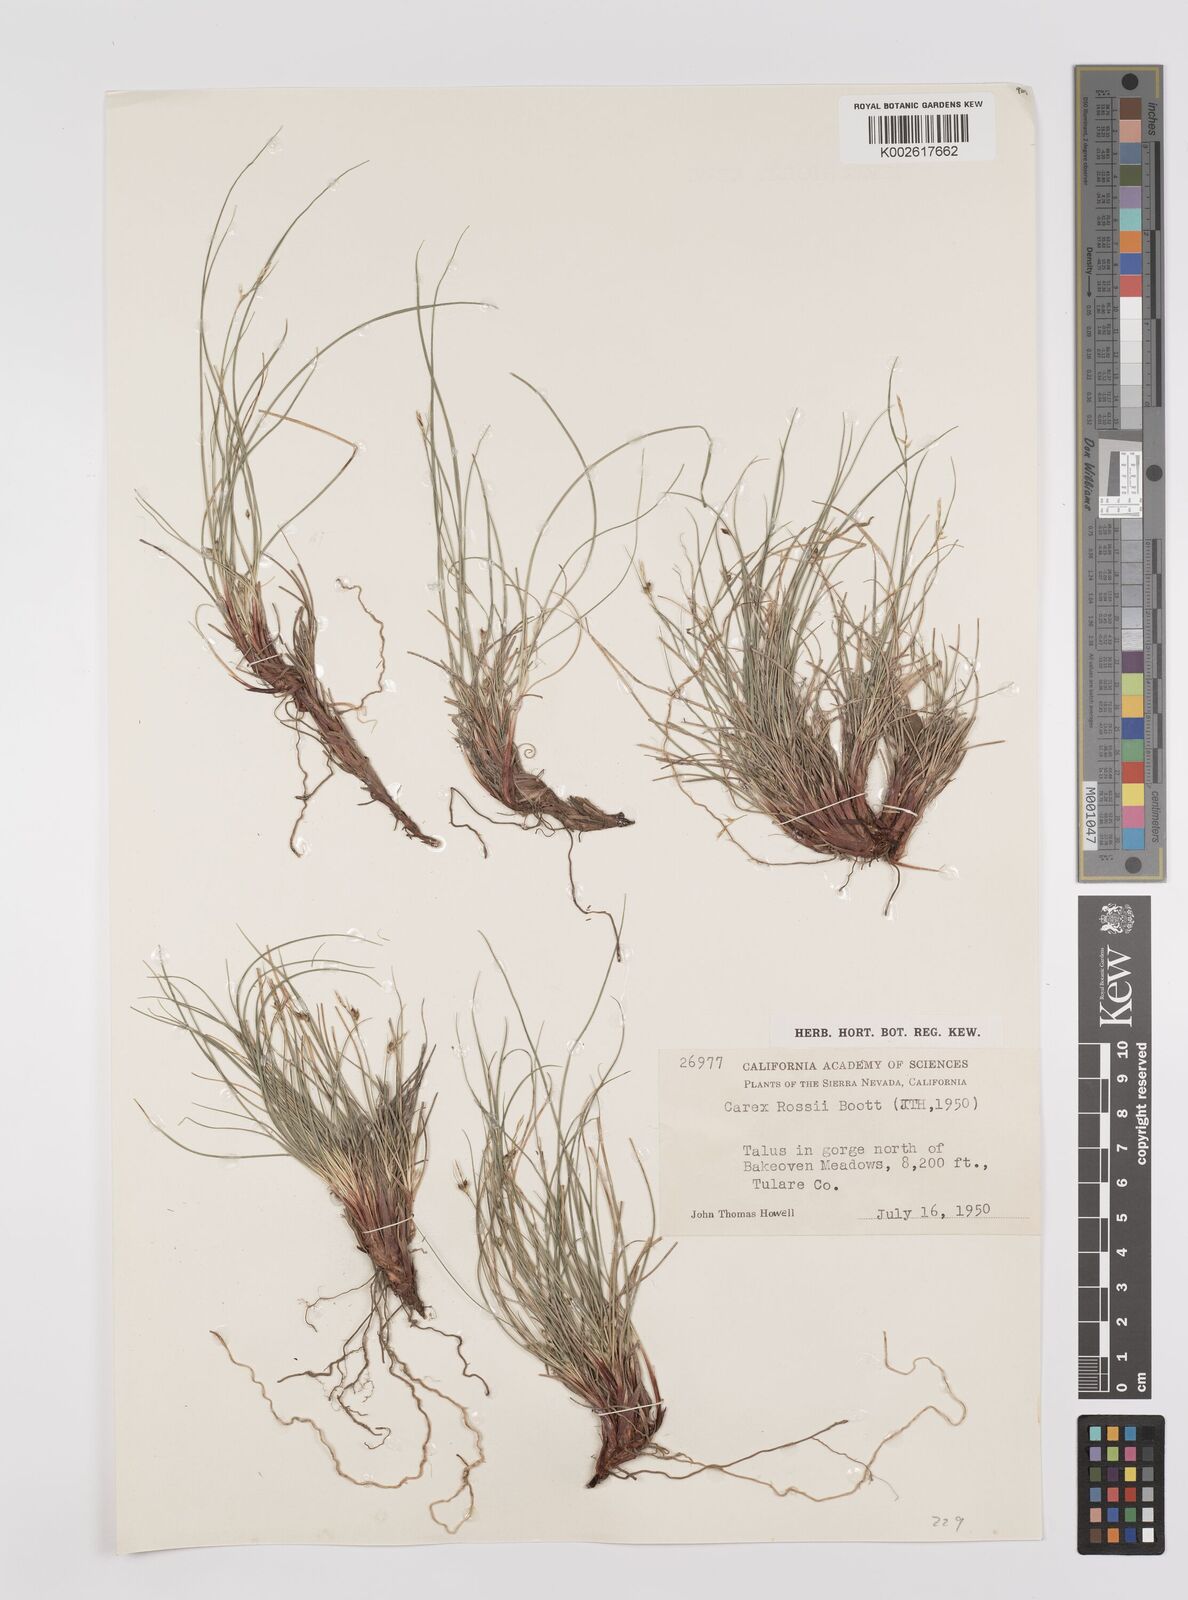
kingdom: Plantae
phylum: Tracheophyta
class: Liliopsida
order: Poales
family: Cyperaceae
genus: Carex
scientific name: Carex rossii
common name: Ross' sedge
